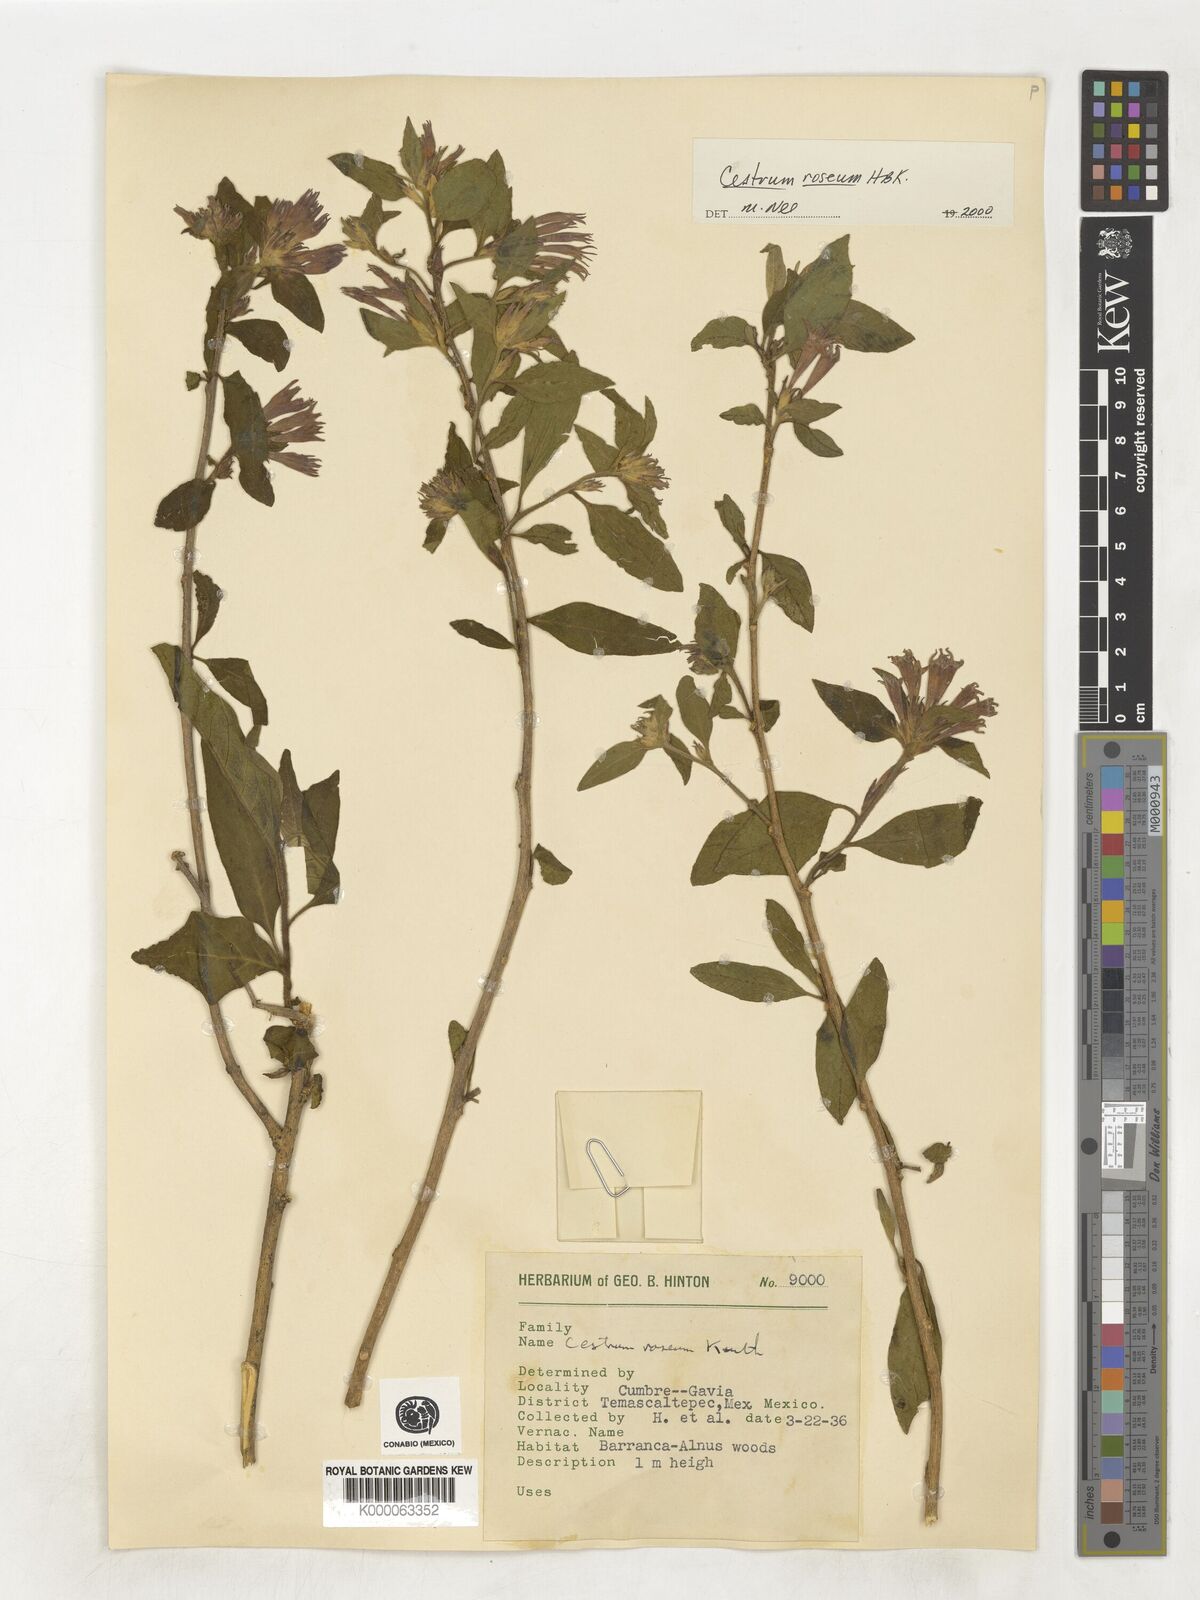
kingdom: Plantae
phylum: Tracheophyta
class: Magnoliopsida
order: Solanales
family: Solanaceae
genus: Cestrum
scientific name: Cestrum
